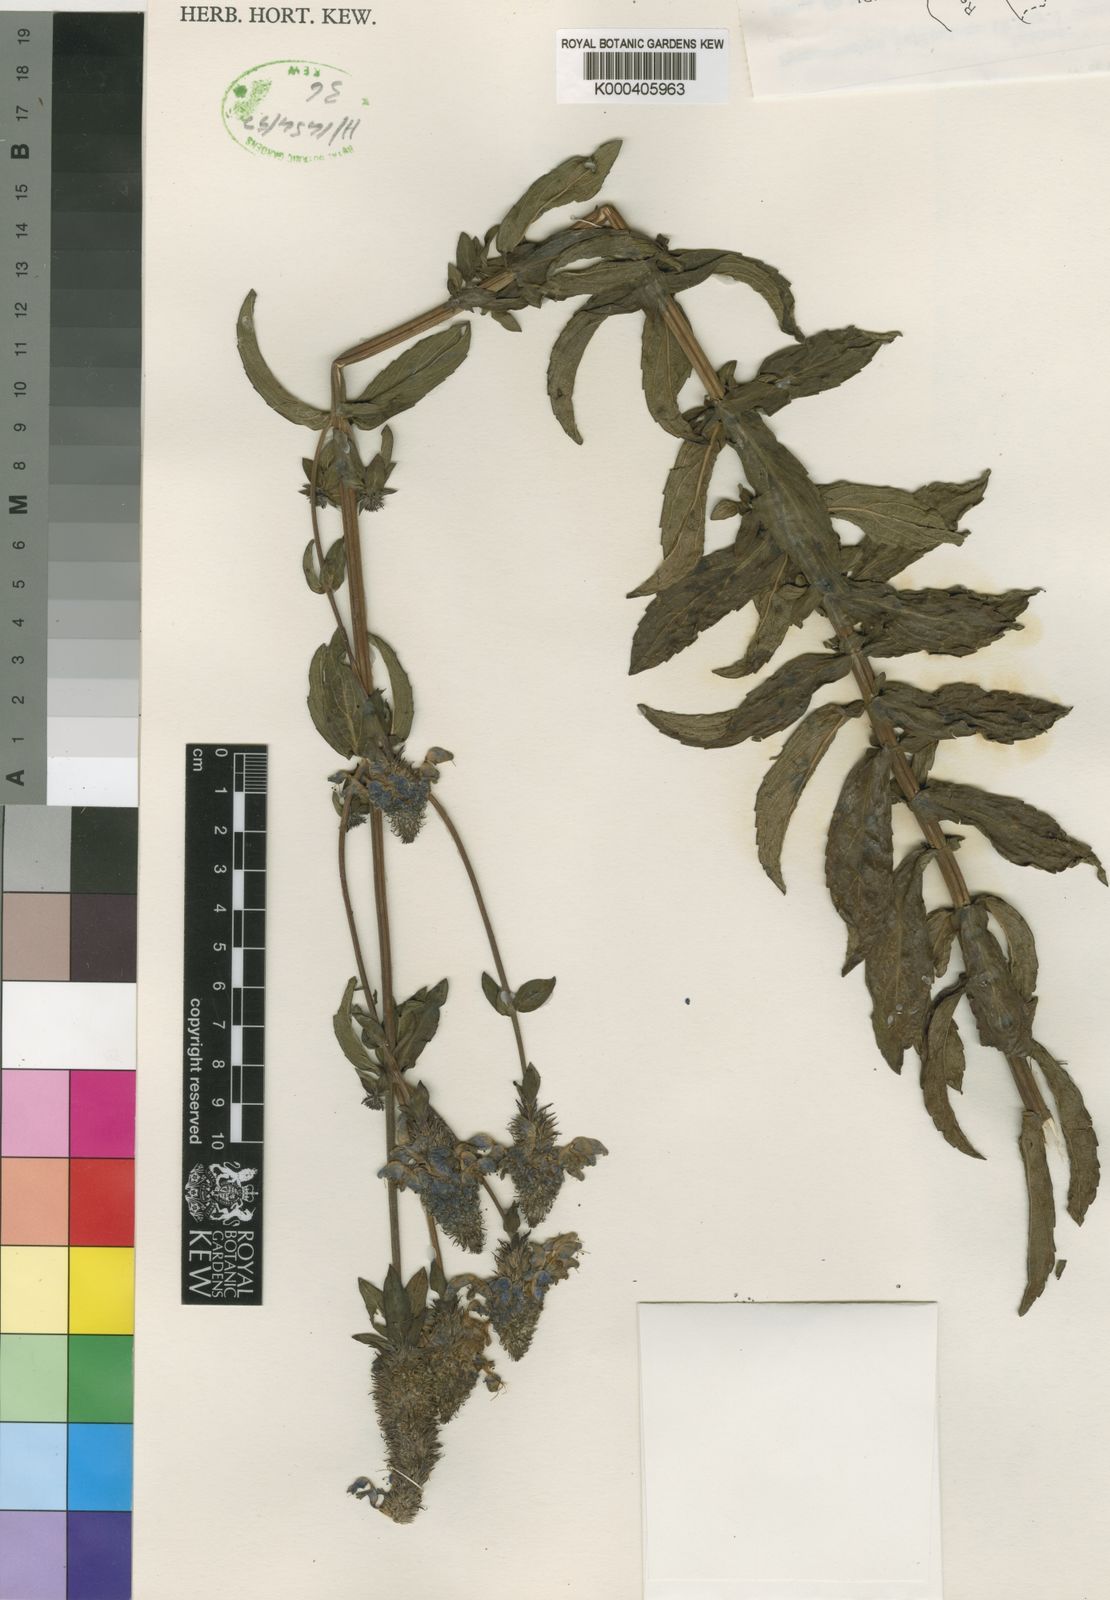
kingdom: Plantae
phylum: Tracheophyta
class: Magnoliopsida
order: Lamiales
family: Lamiaceae
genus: Coleus
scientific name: Coleus recurvata
